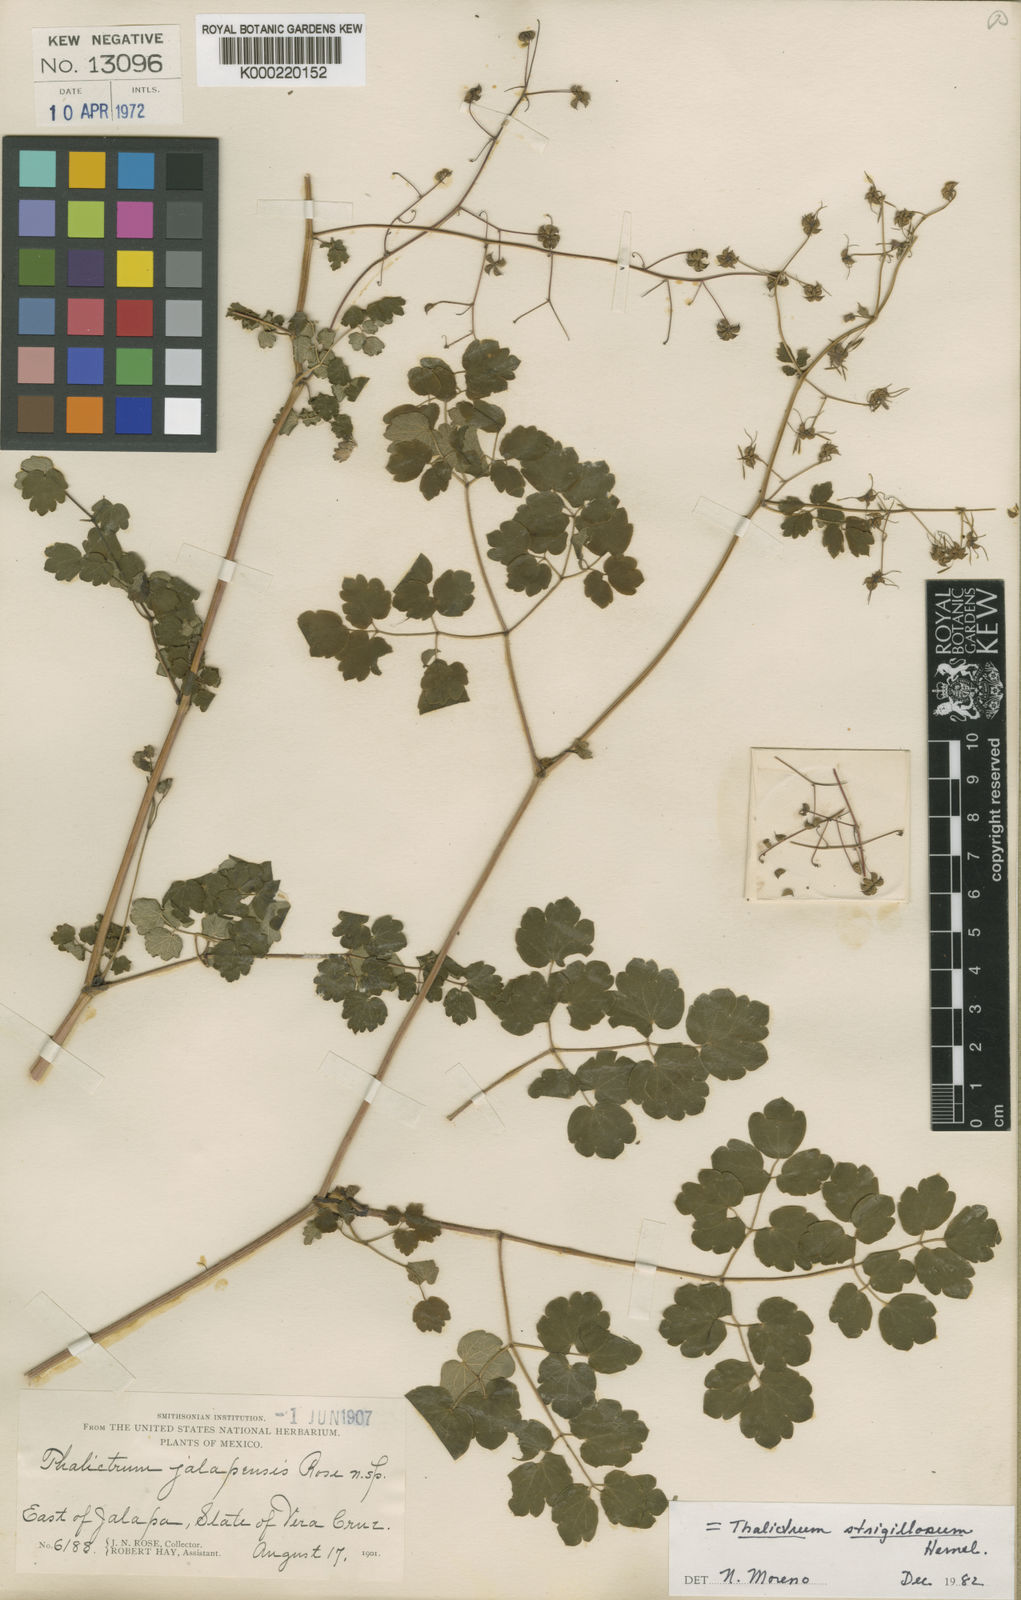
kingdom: Plantae
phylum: Tracheophyta
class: Magnoliopsida
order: Ranunculales
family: Ranunculaceae
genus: Thalictrum
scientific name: Thalictrum strigillosum
